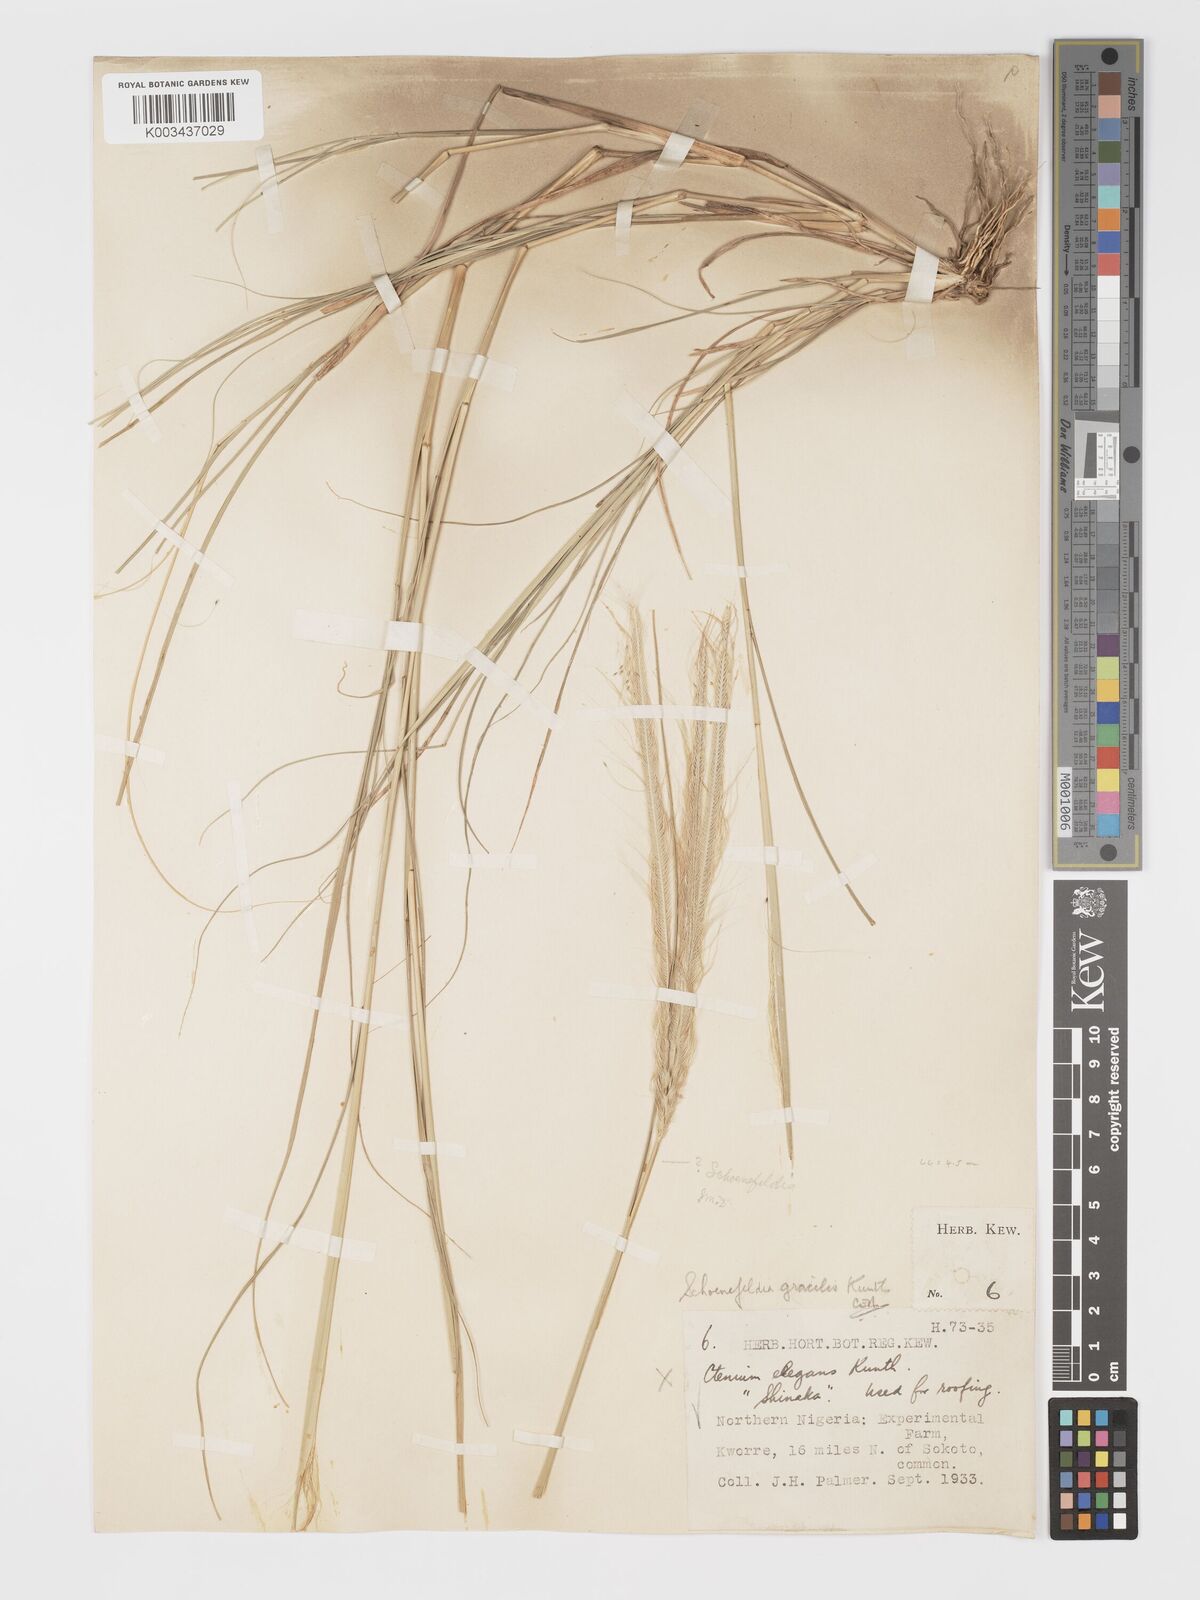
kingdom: Plantae
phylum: Tracheophyta
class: Liliopsida
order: Poales
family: Poaceae
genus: Schoenefeldia
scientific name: Schoenefeldia gracilis
